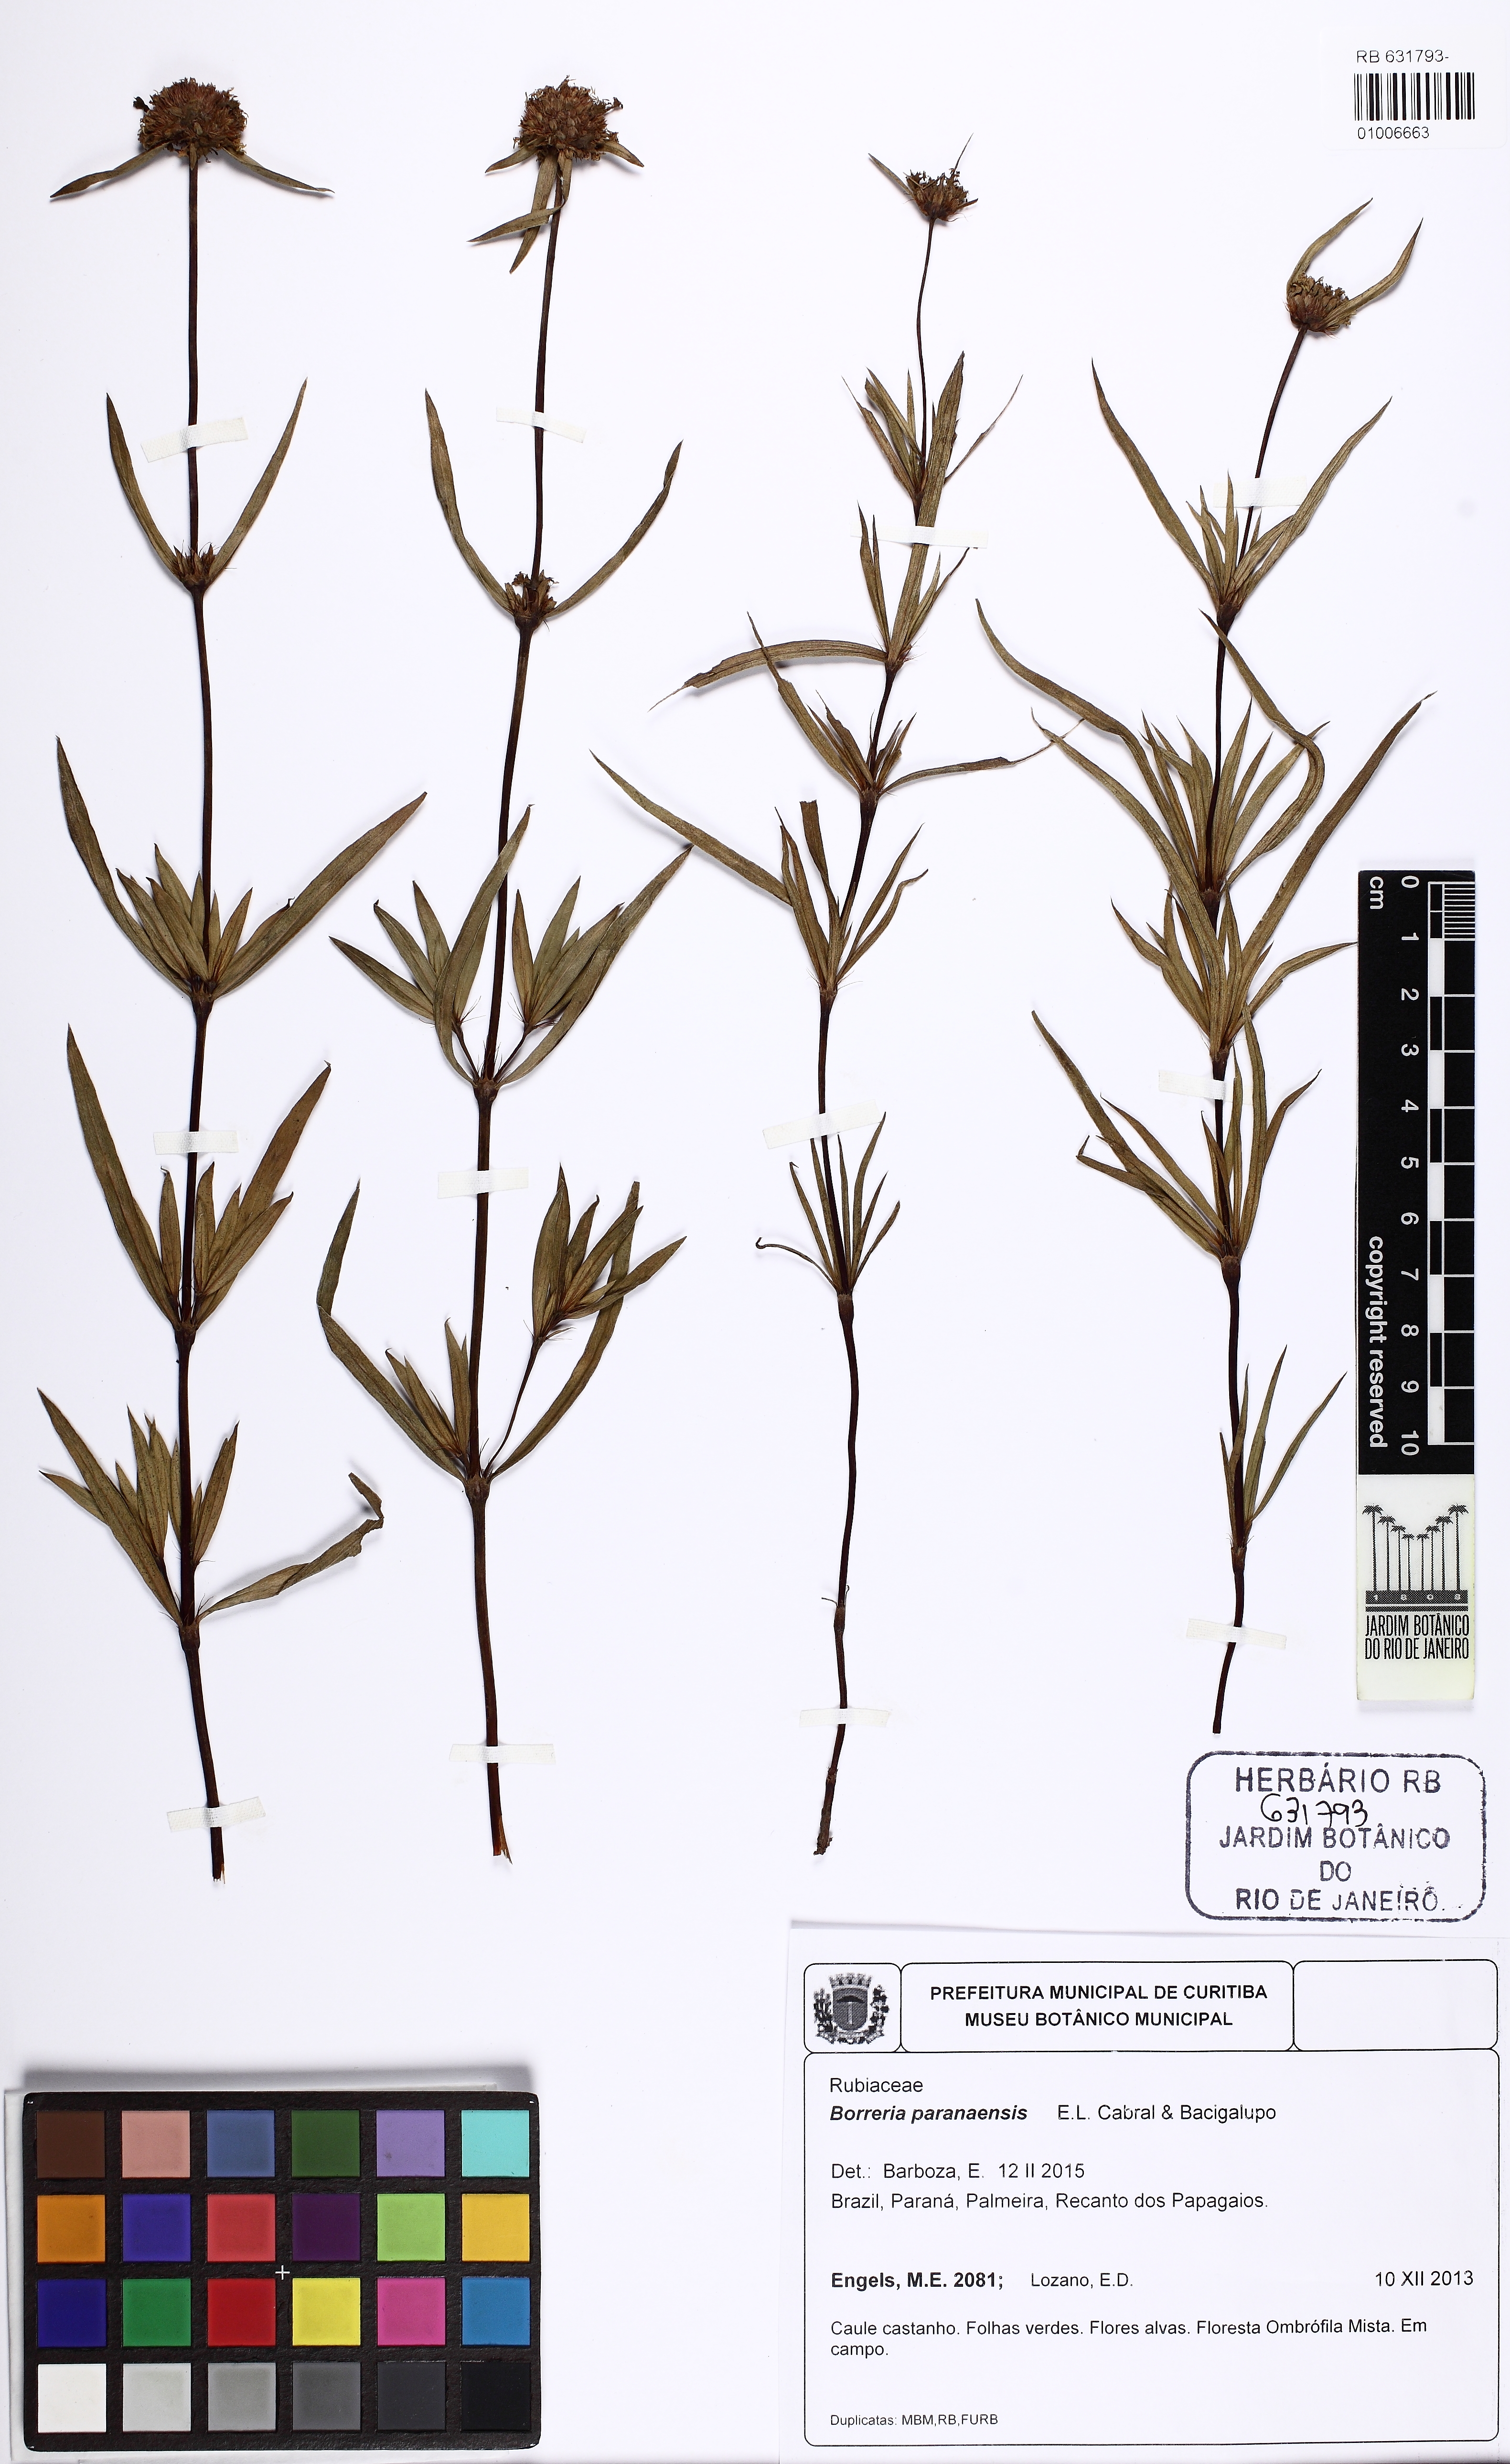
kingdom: Plantae
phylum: Tracheophyta
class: Magnoliopsida
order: Gentianales
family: Rubiaceae
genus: Spermacoce
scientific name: Spermacoce paranaensis
